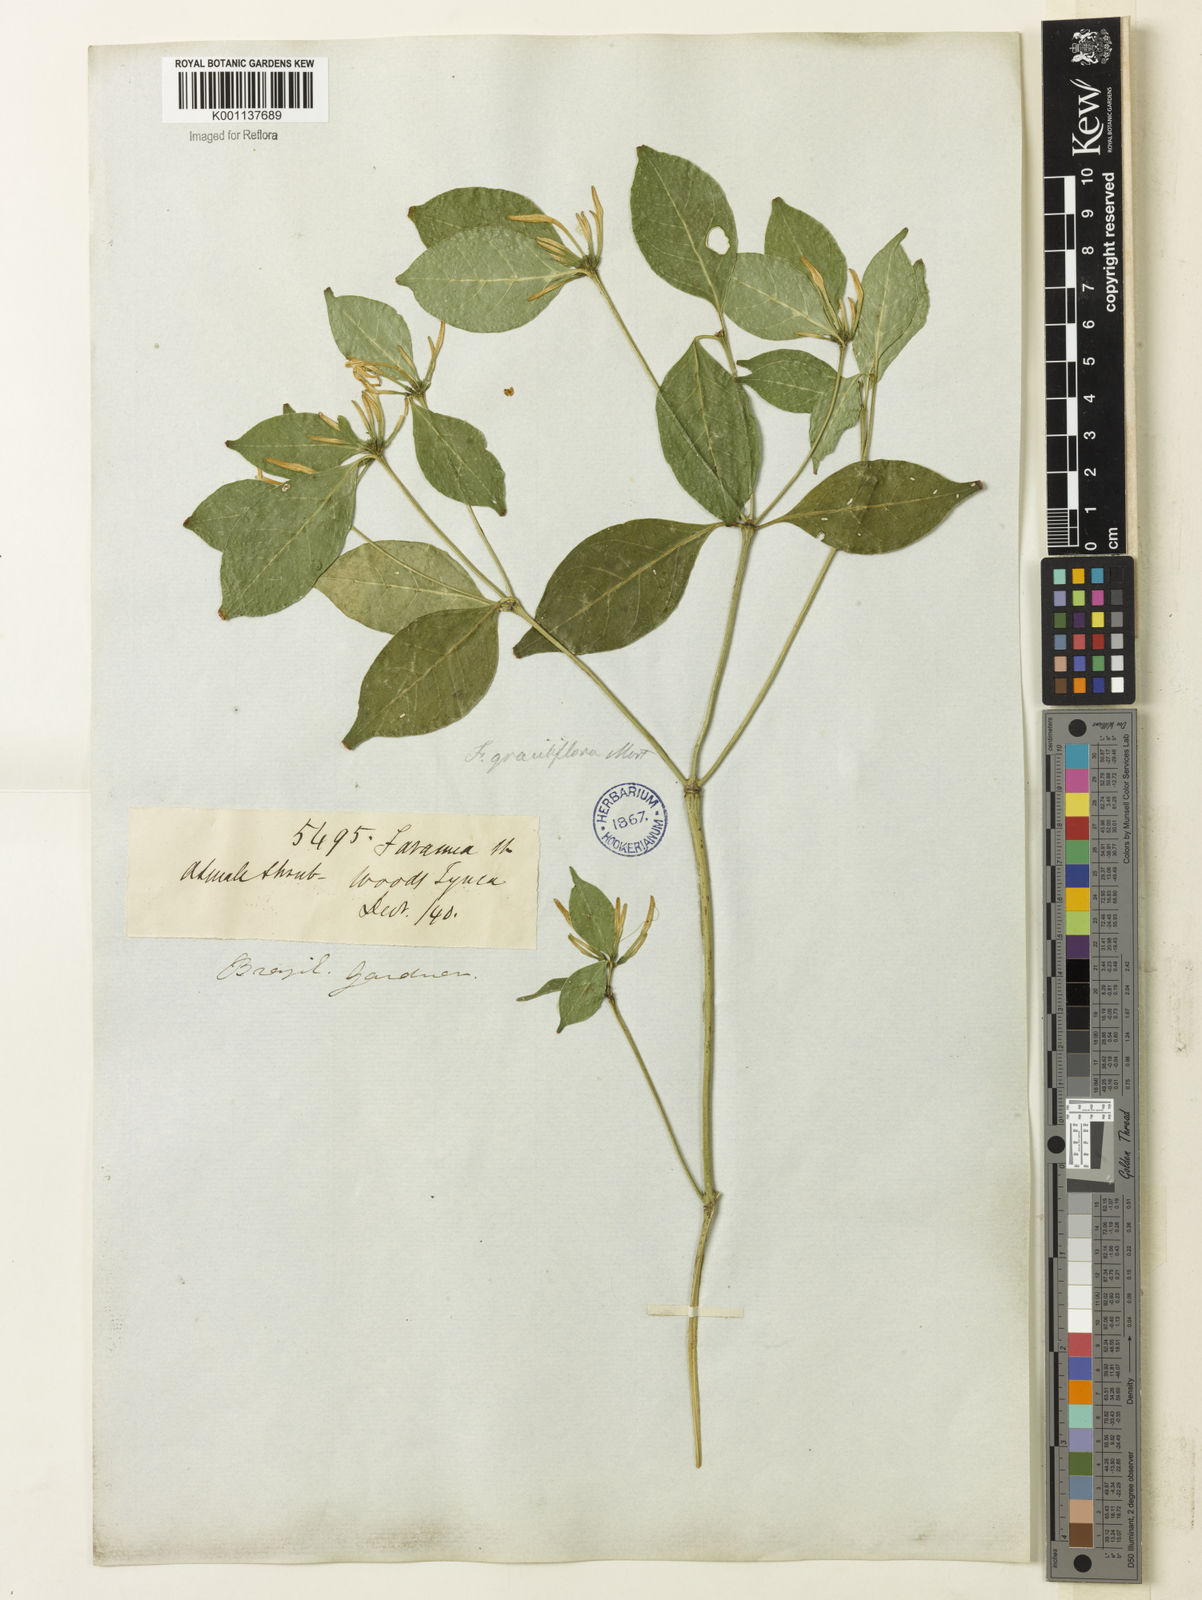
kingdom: Plantae
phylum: Tracheophyta
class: Magnoliopsida
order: Gentianales
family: Rubiaceae
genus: Coussarea
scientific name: Coussarea
